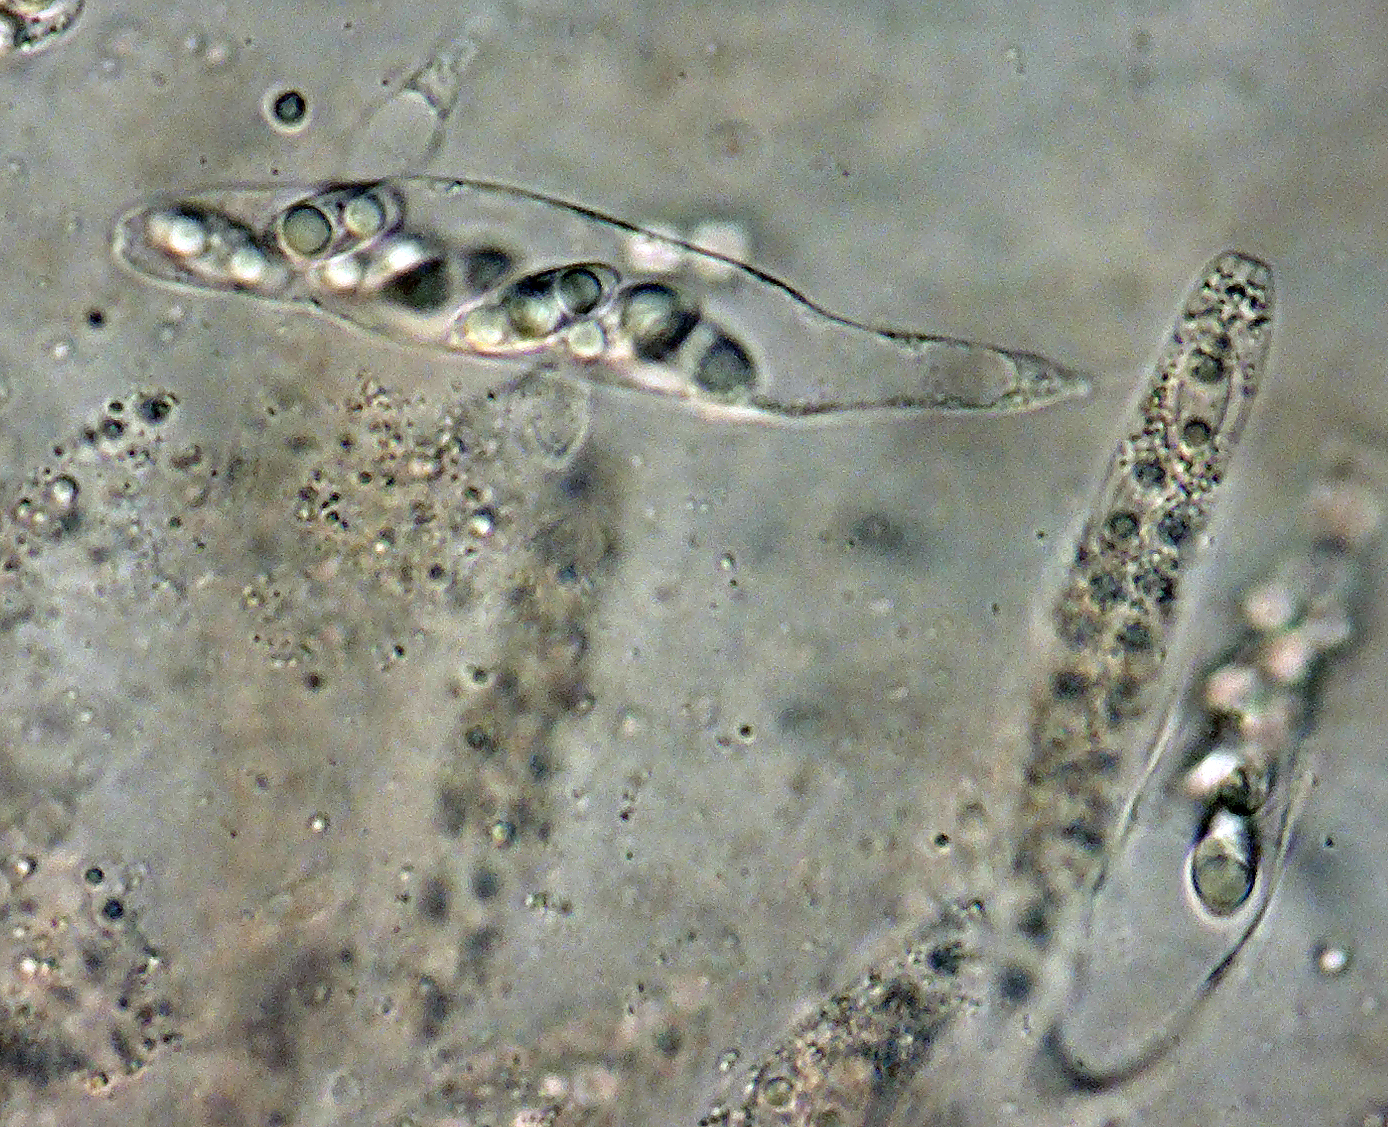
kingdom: Fungi
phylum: Ascomycota
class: Sordariomycetes
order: Calosphaeriales
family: Calosphaeriaceae
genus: Natantiella
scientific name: Natantiella ligneola
